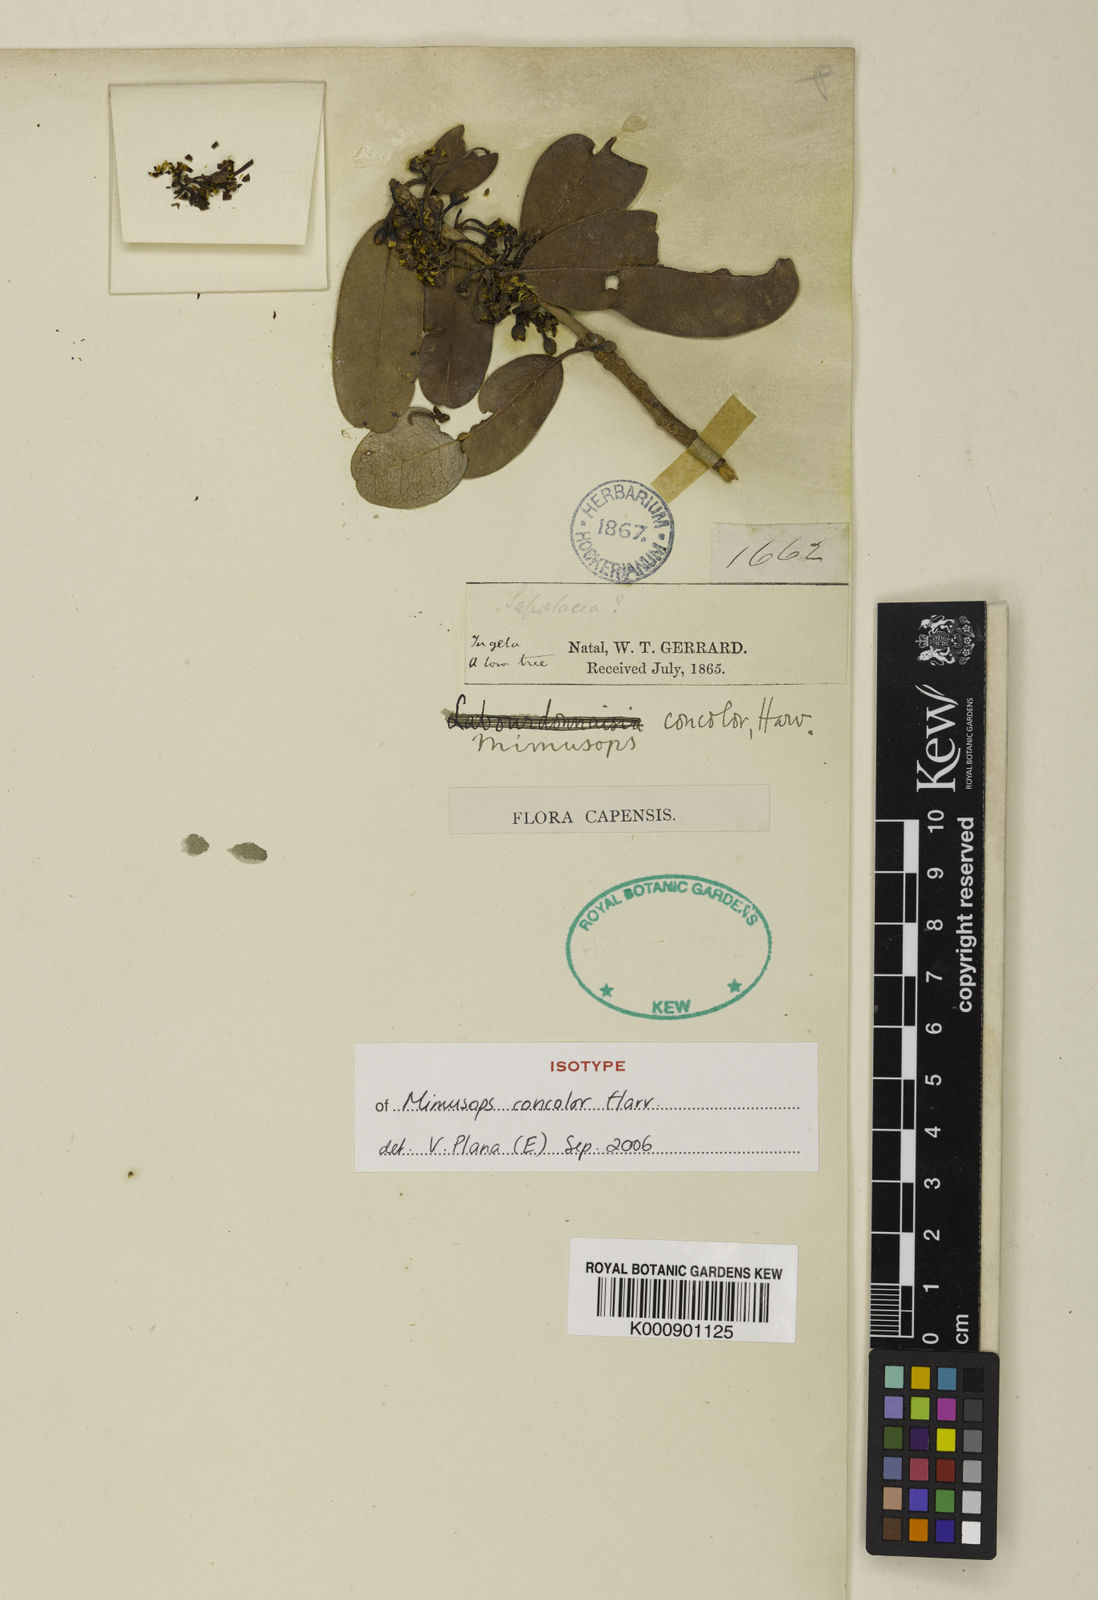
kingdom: Plantae
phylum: Tracheophyta
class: Magnoliopsida
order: Ericales
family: Sapotaceae
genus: Manilkara
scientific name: Manilkara concolor
